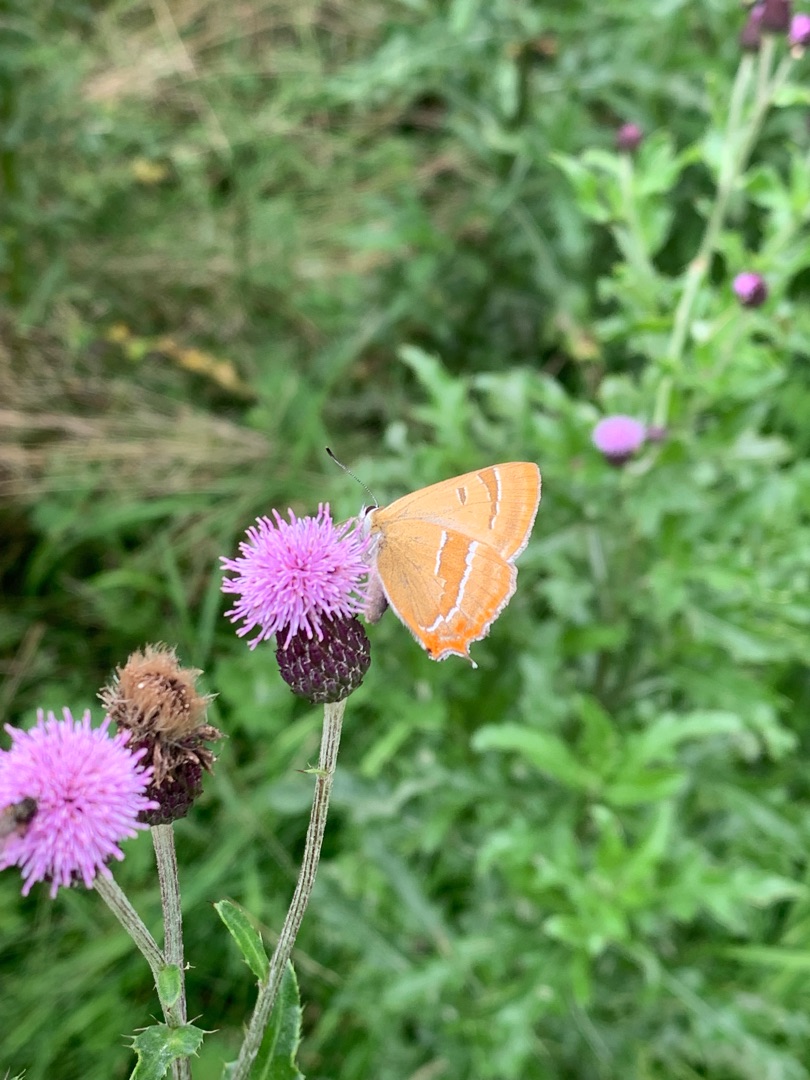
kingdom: Animalia
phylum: Arthropoda
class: Insecta
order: Lepidoptera
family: Lycaenidae
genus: Thecla
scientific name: Thecla betulae
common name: Guldhale
